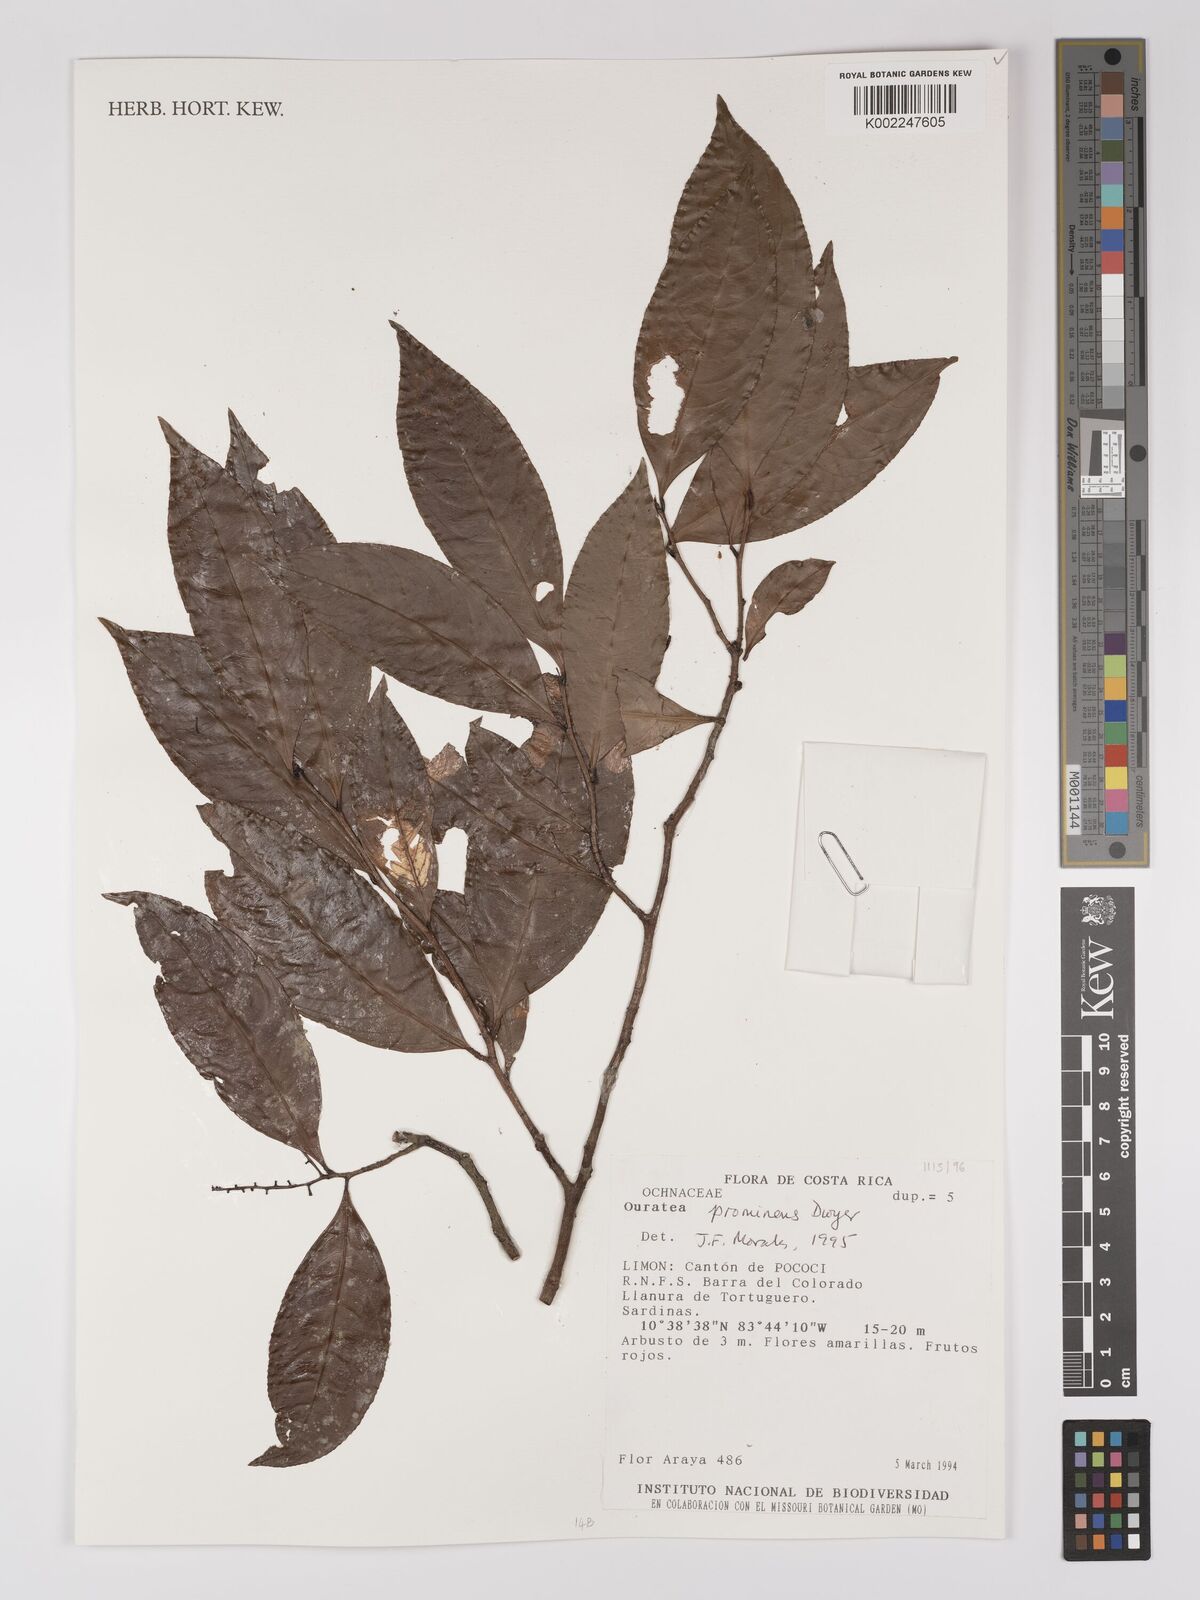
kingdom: Plantae
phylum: Tracheophyta
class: Magnoliopsida
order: Malpighiales
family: Ochnaceae
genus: Ouratea
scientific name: Ouratea prominens
